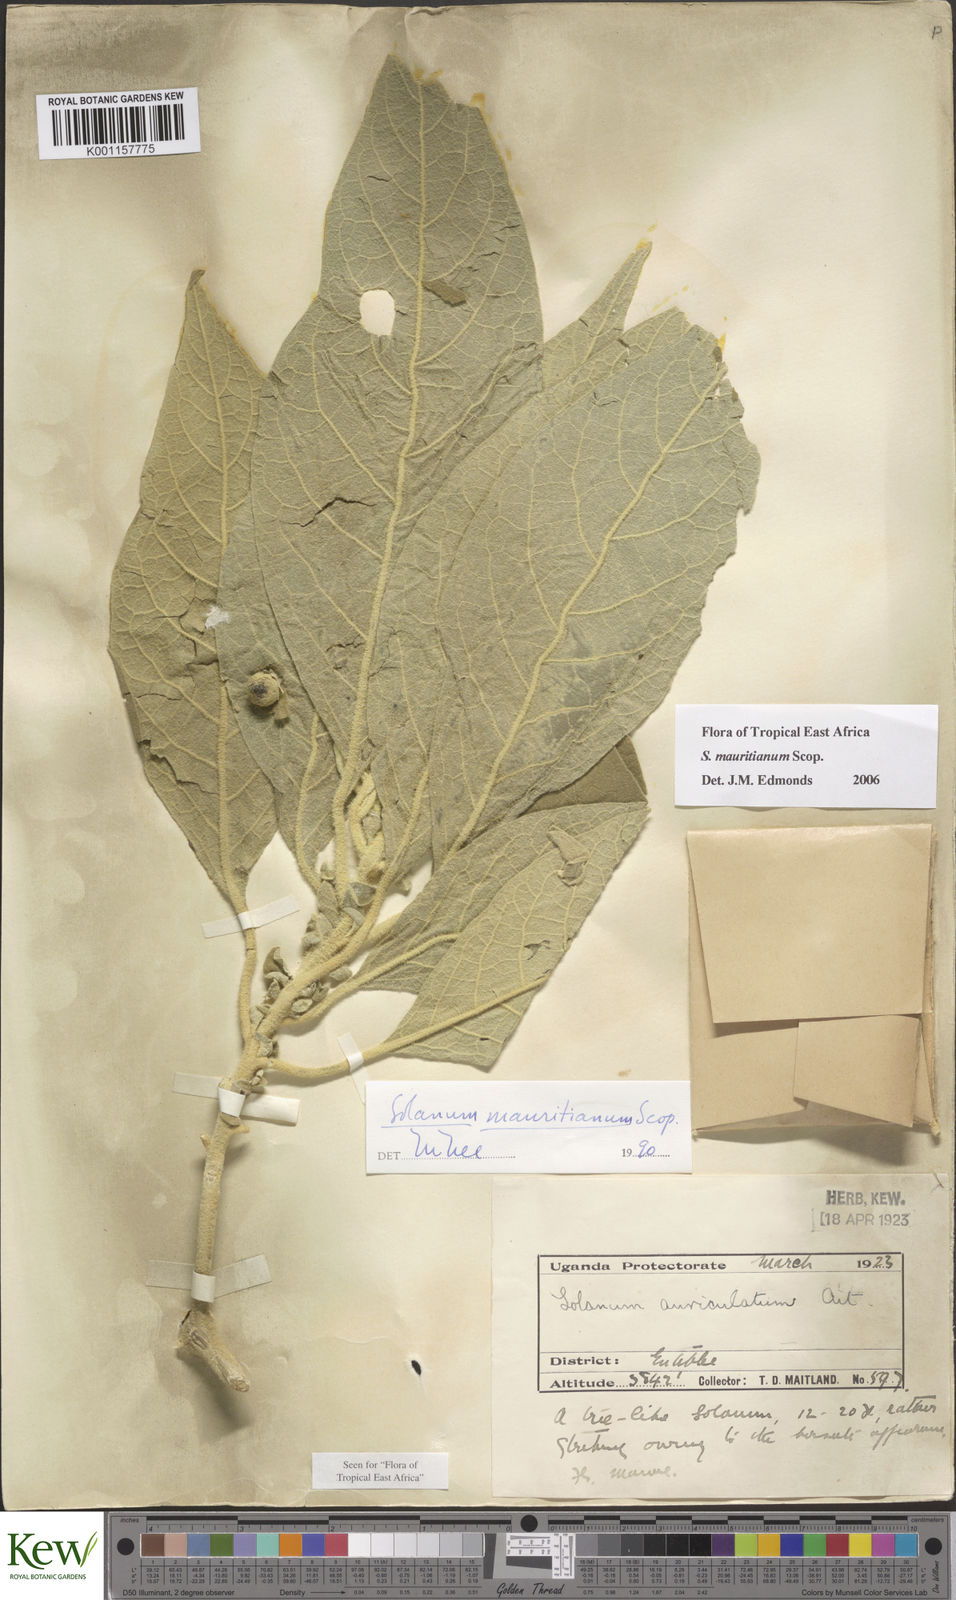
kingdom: Plantae
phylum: Tracheophyta
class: Magnoliopsida
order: Solanales
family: Solanaceae
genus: Solanum
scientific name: Solanum erianthum
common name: Tobacco-tree
